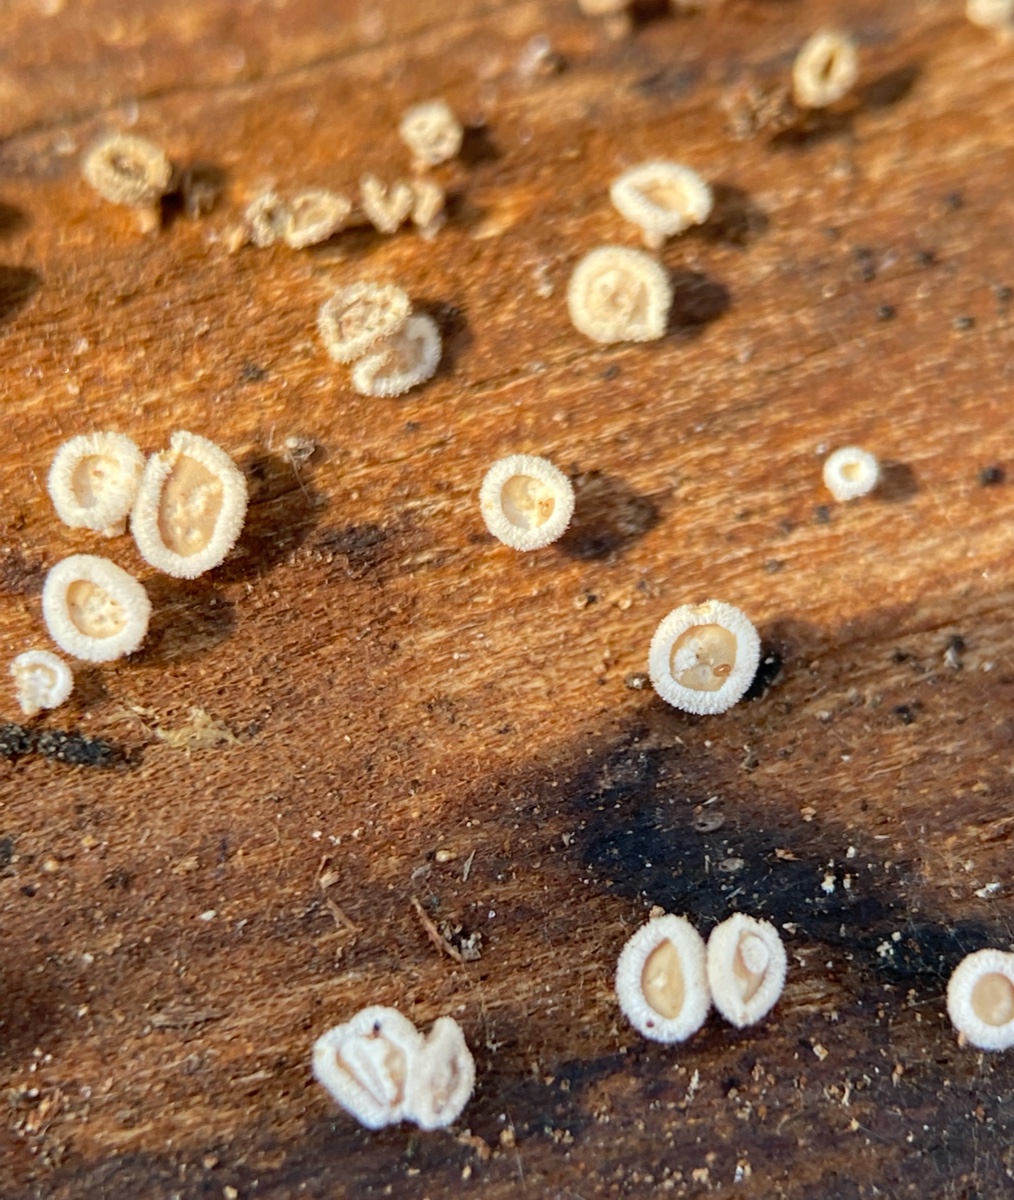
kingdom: Fungi
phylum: Ascomycota
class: Leotiomycetes
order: Helotiales
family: Lachnaceae
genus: Lachnum
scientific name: Lachnum
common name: frynseskive
